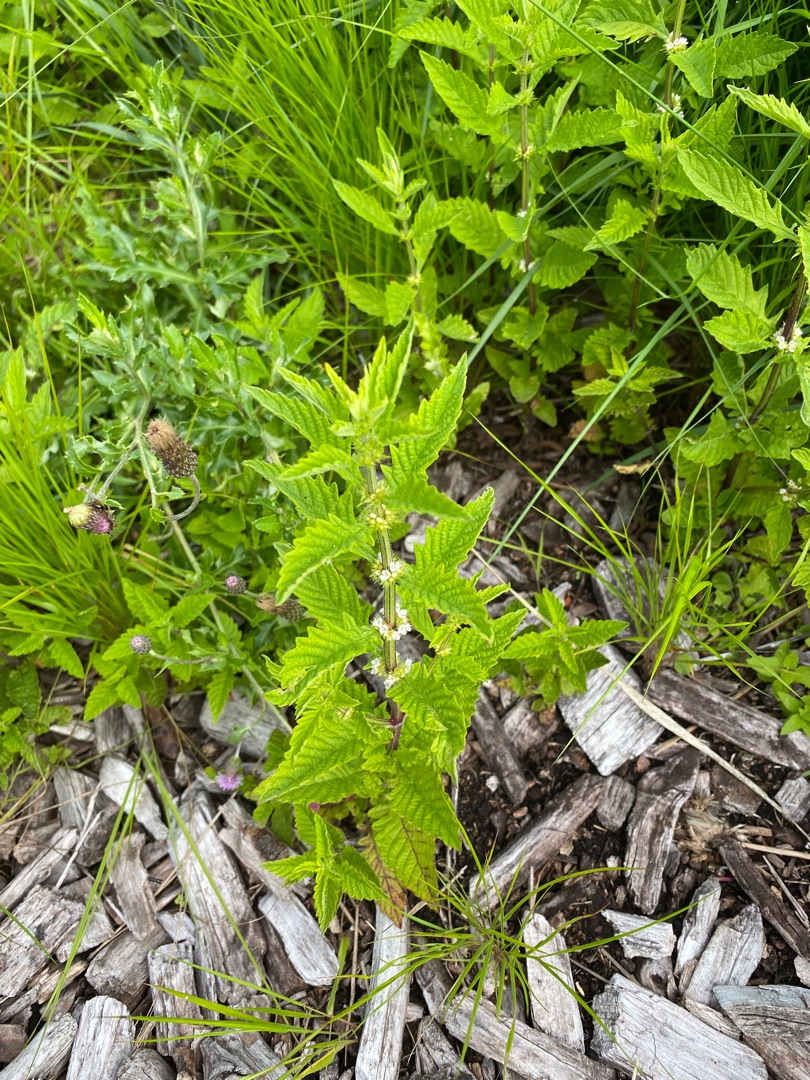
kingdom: Plantae
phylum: Tracheophyta
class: Magnoliopsida
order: Lamiales
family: Lamiaceae
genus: Lycopus
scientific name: Lycopus europaeus
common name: Sværtevæld
